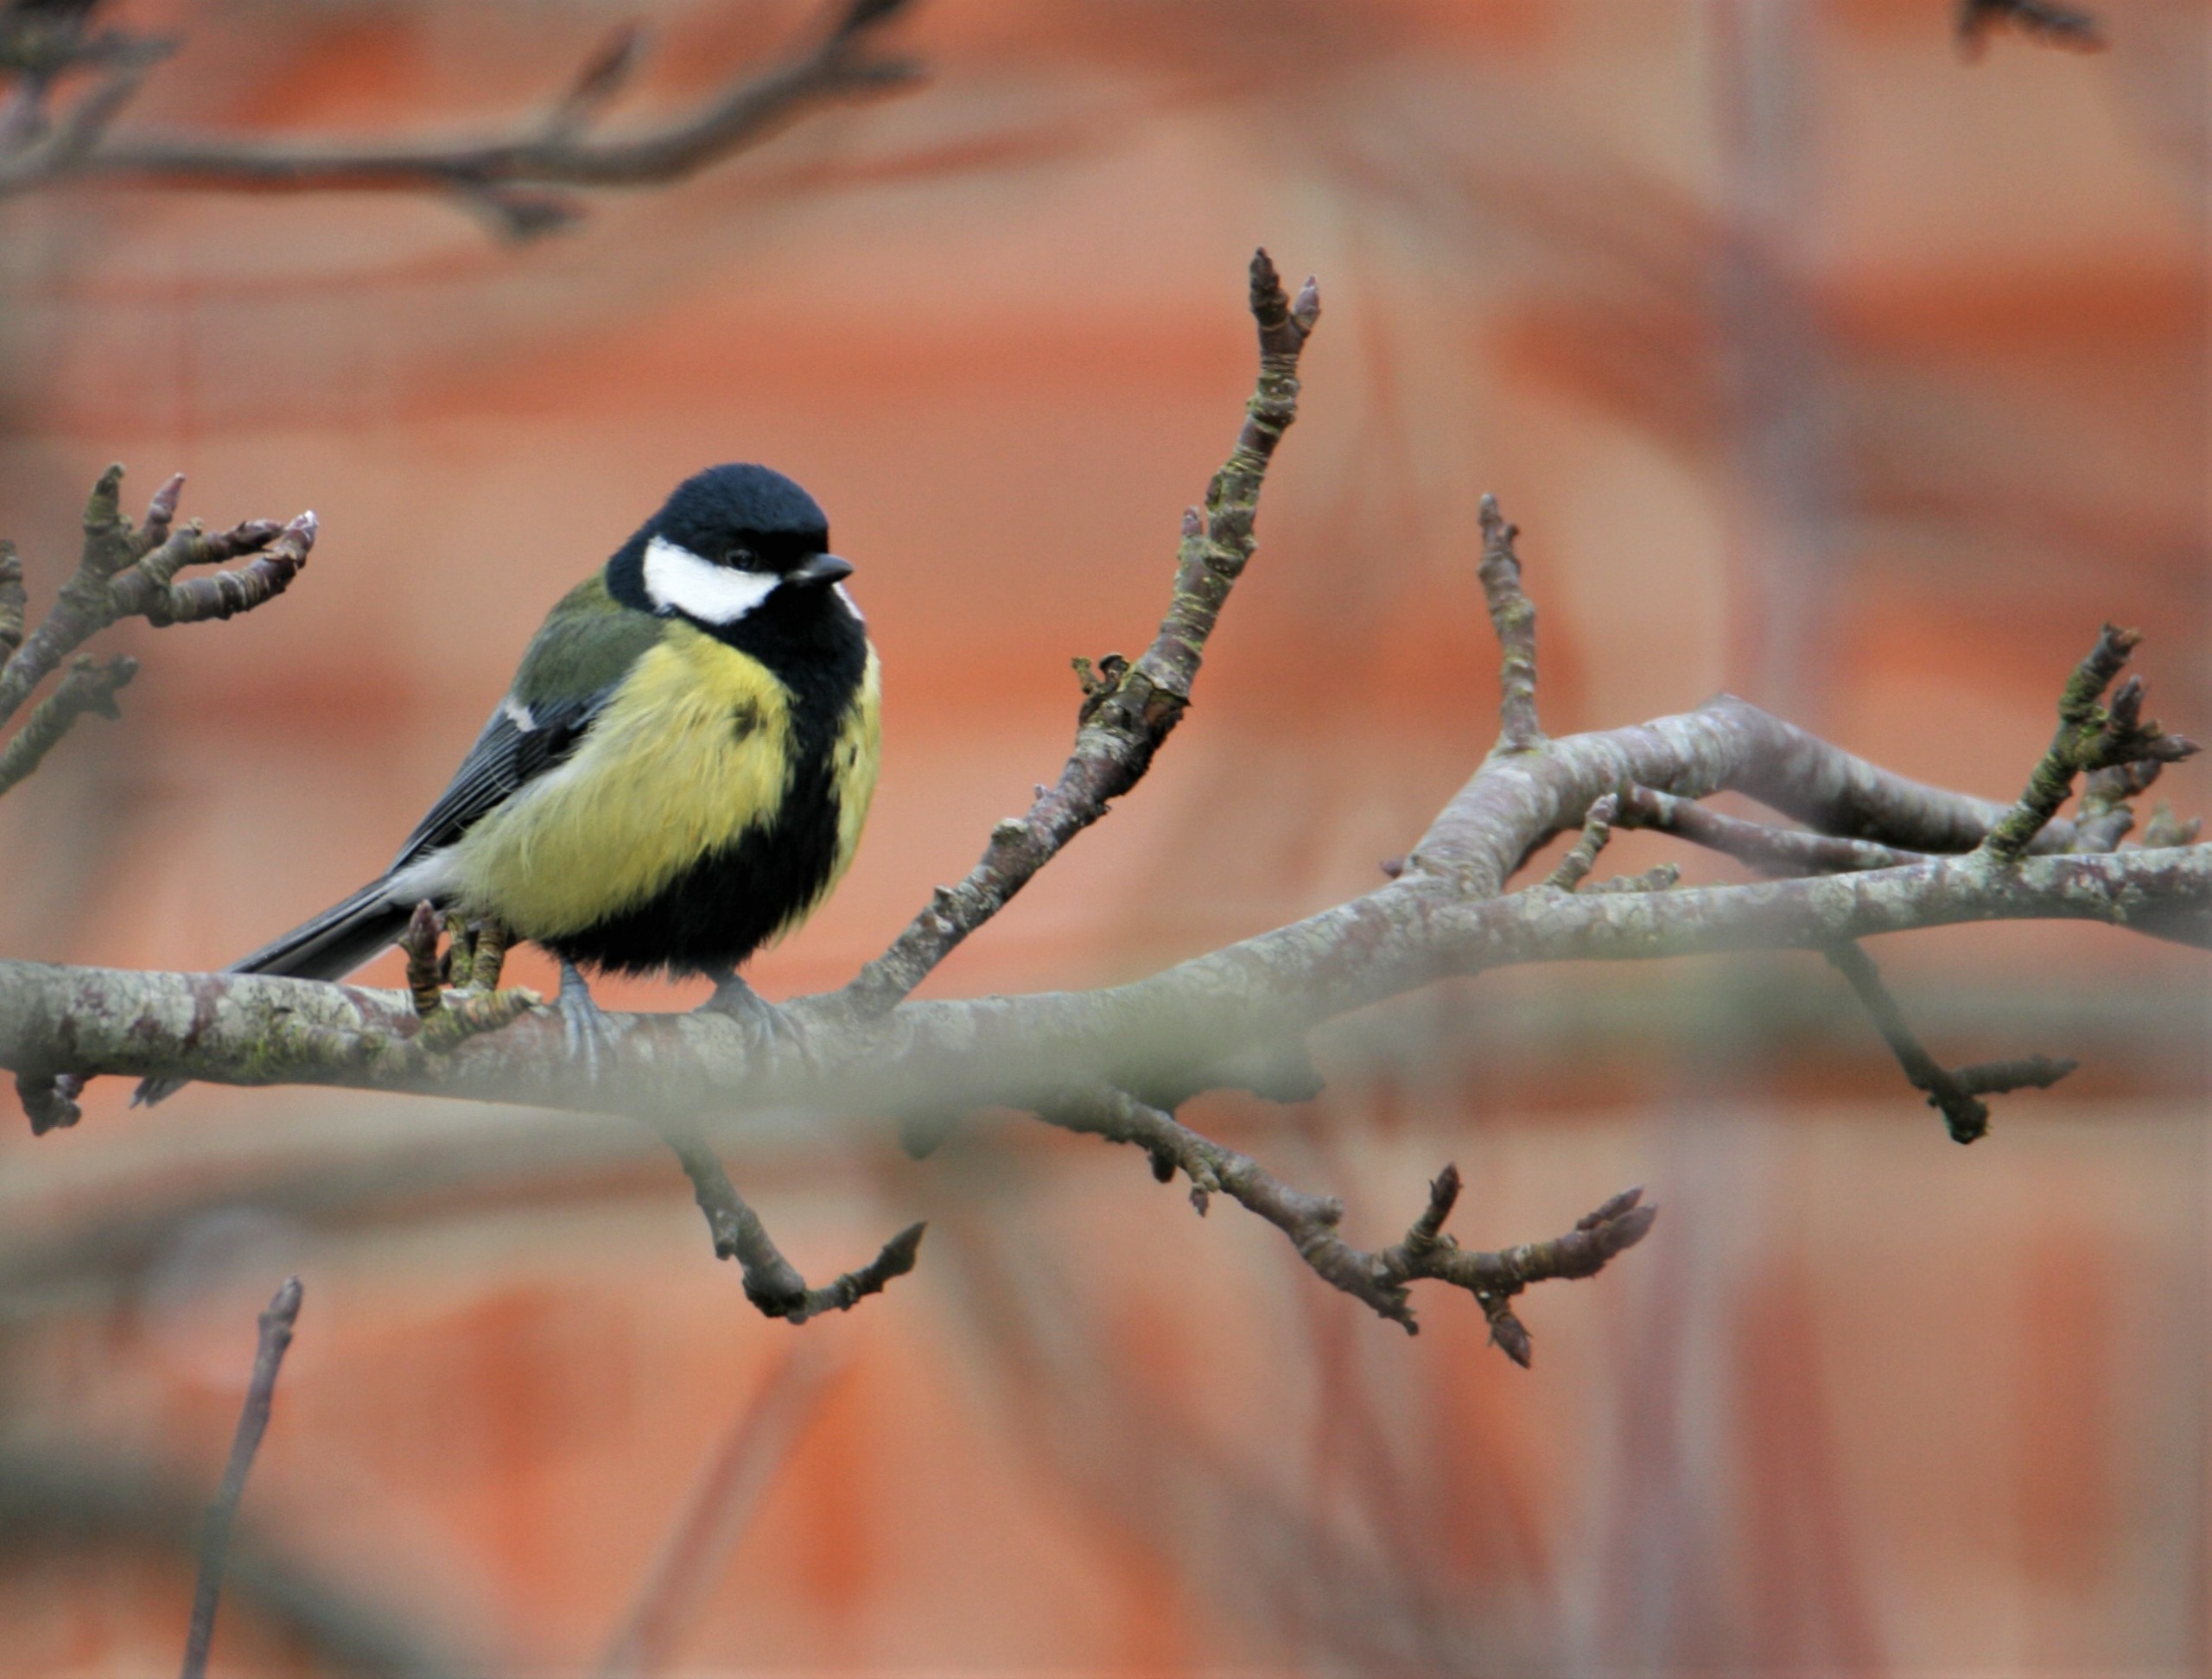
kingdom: Animalia
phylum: Chordata
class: Aves
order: Passeriformes
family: Paridae
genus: Parus
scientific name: Parus major
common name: Musvit
